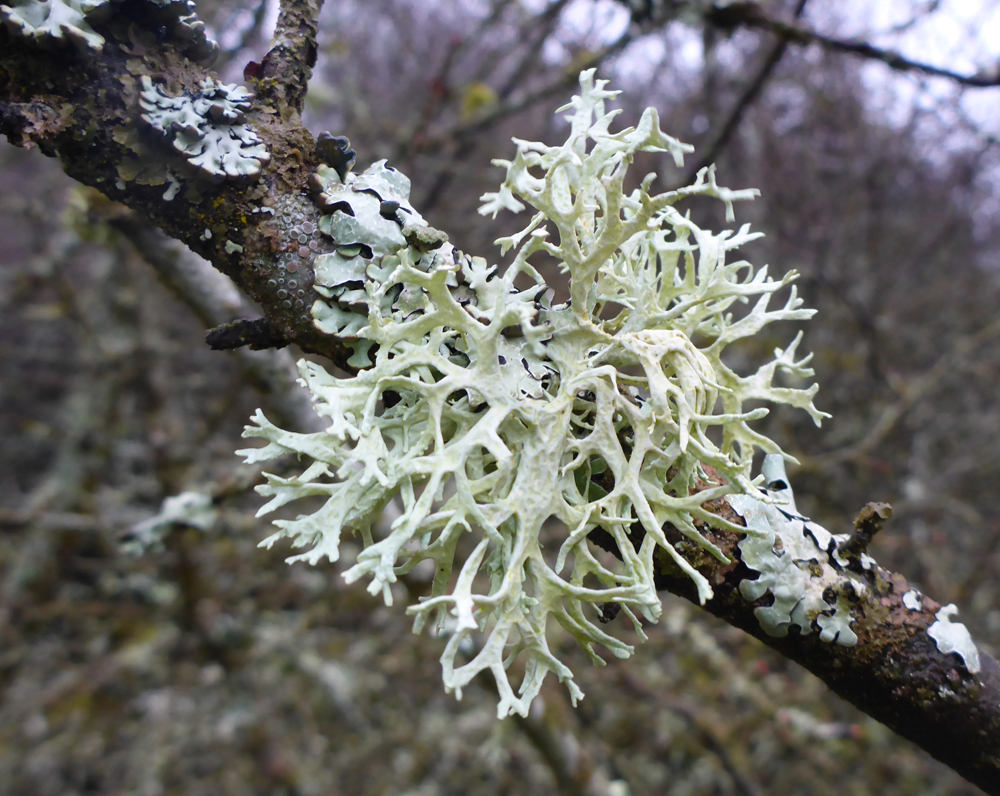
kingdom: Fungi
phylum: Ascomycota
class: Lecanoromycetes
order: Lecanorales
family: Parmeliaceae
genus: Evernia
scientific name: Evernia prunastri
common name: Oak moss
